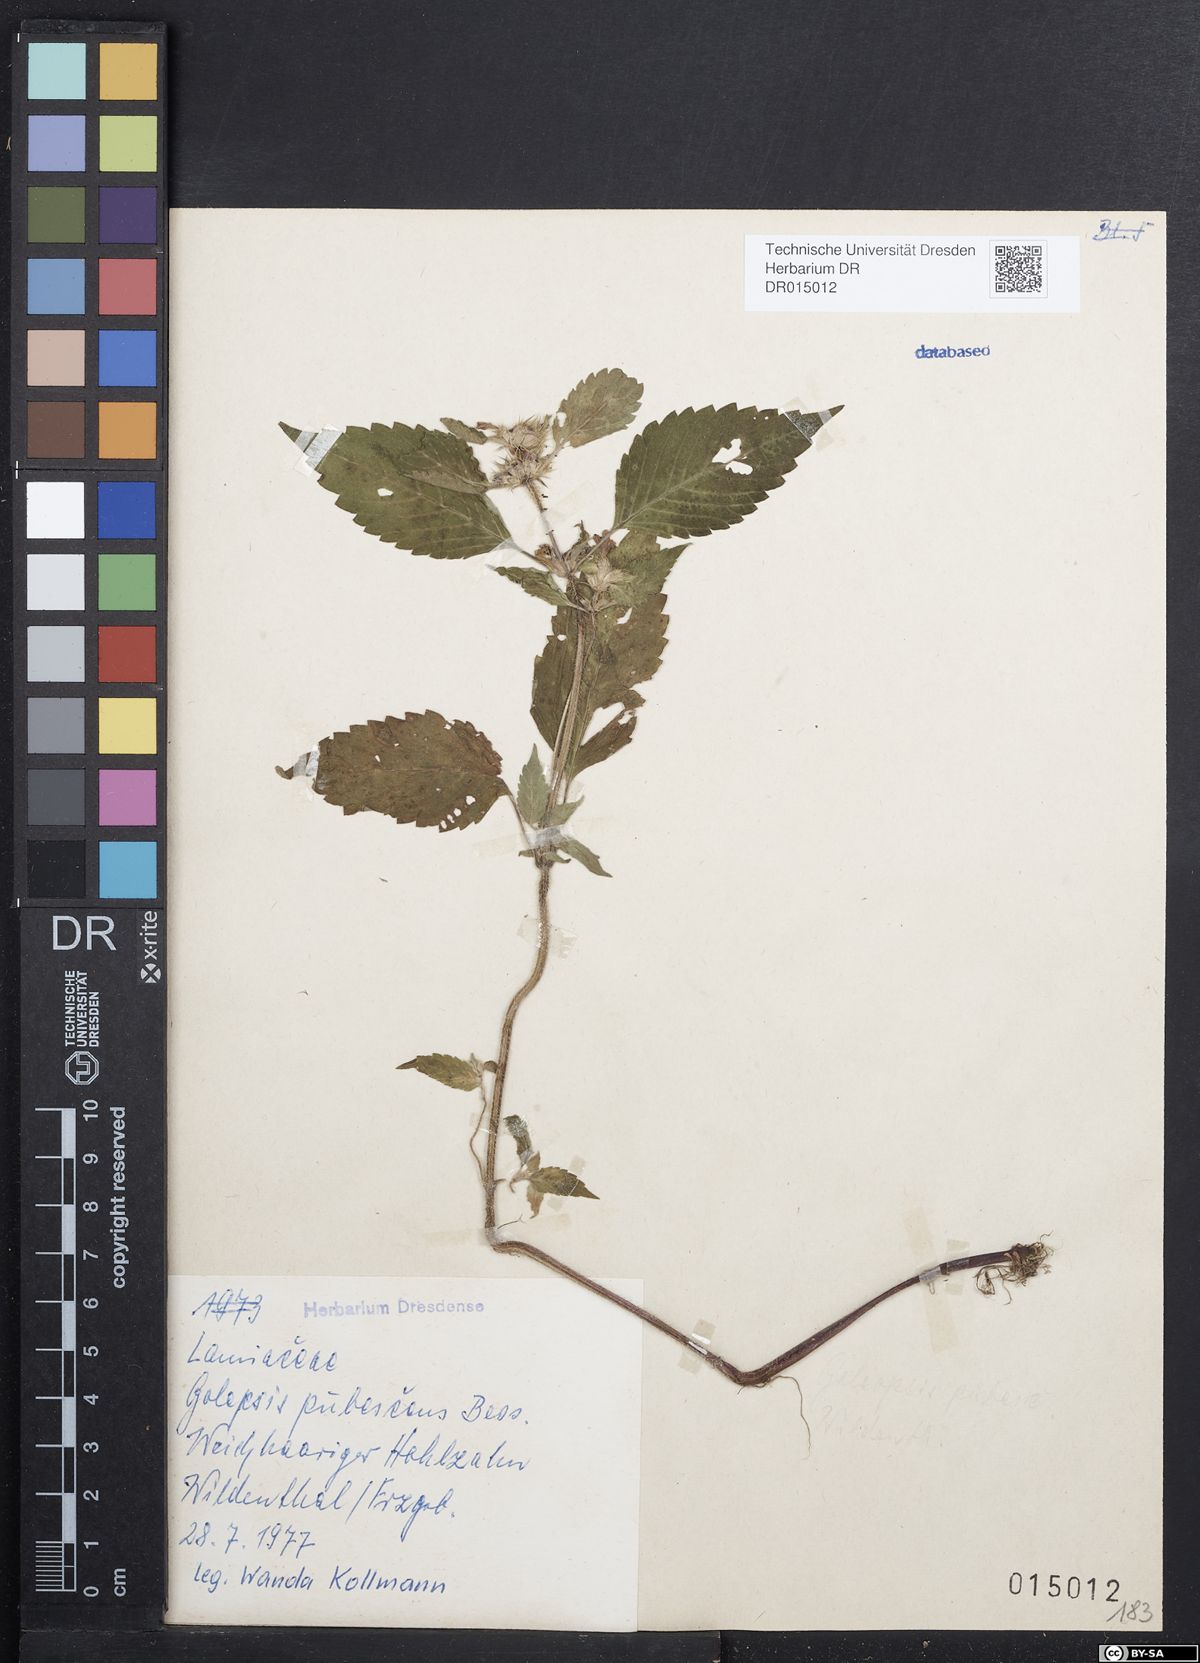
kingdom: Plantae
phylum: Tracheophyta
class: Magnoliopsida
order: Lamiales
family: Lamiaceae
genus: Galeopsis
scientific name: Galeopsis pubescens
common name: Downy hemp-nettle
